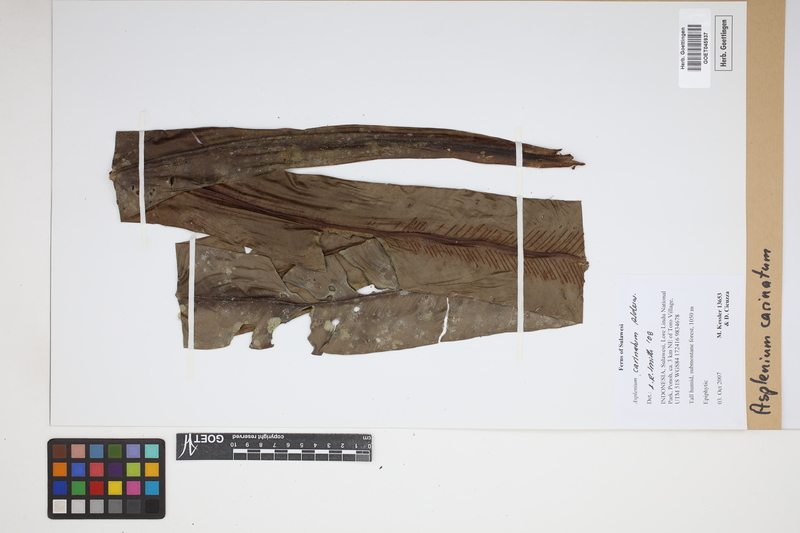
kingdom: Plantae
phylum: Tracheophyta
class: Polypodiopsida
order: Polypodiales
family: Aspleniaceae
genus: Asplenium
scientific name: Asplenium carinatum
